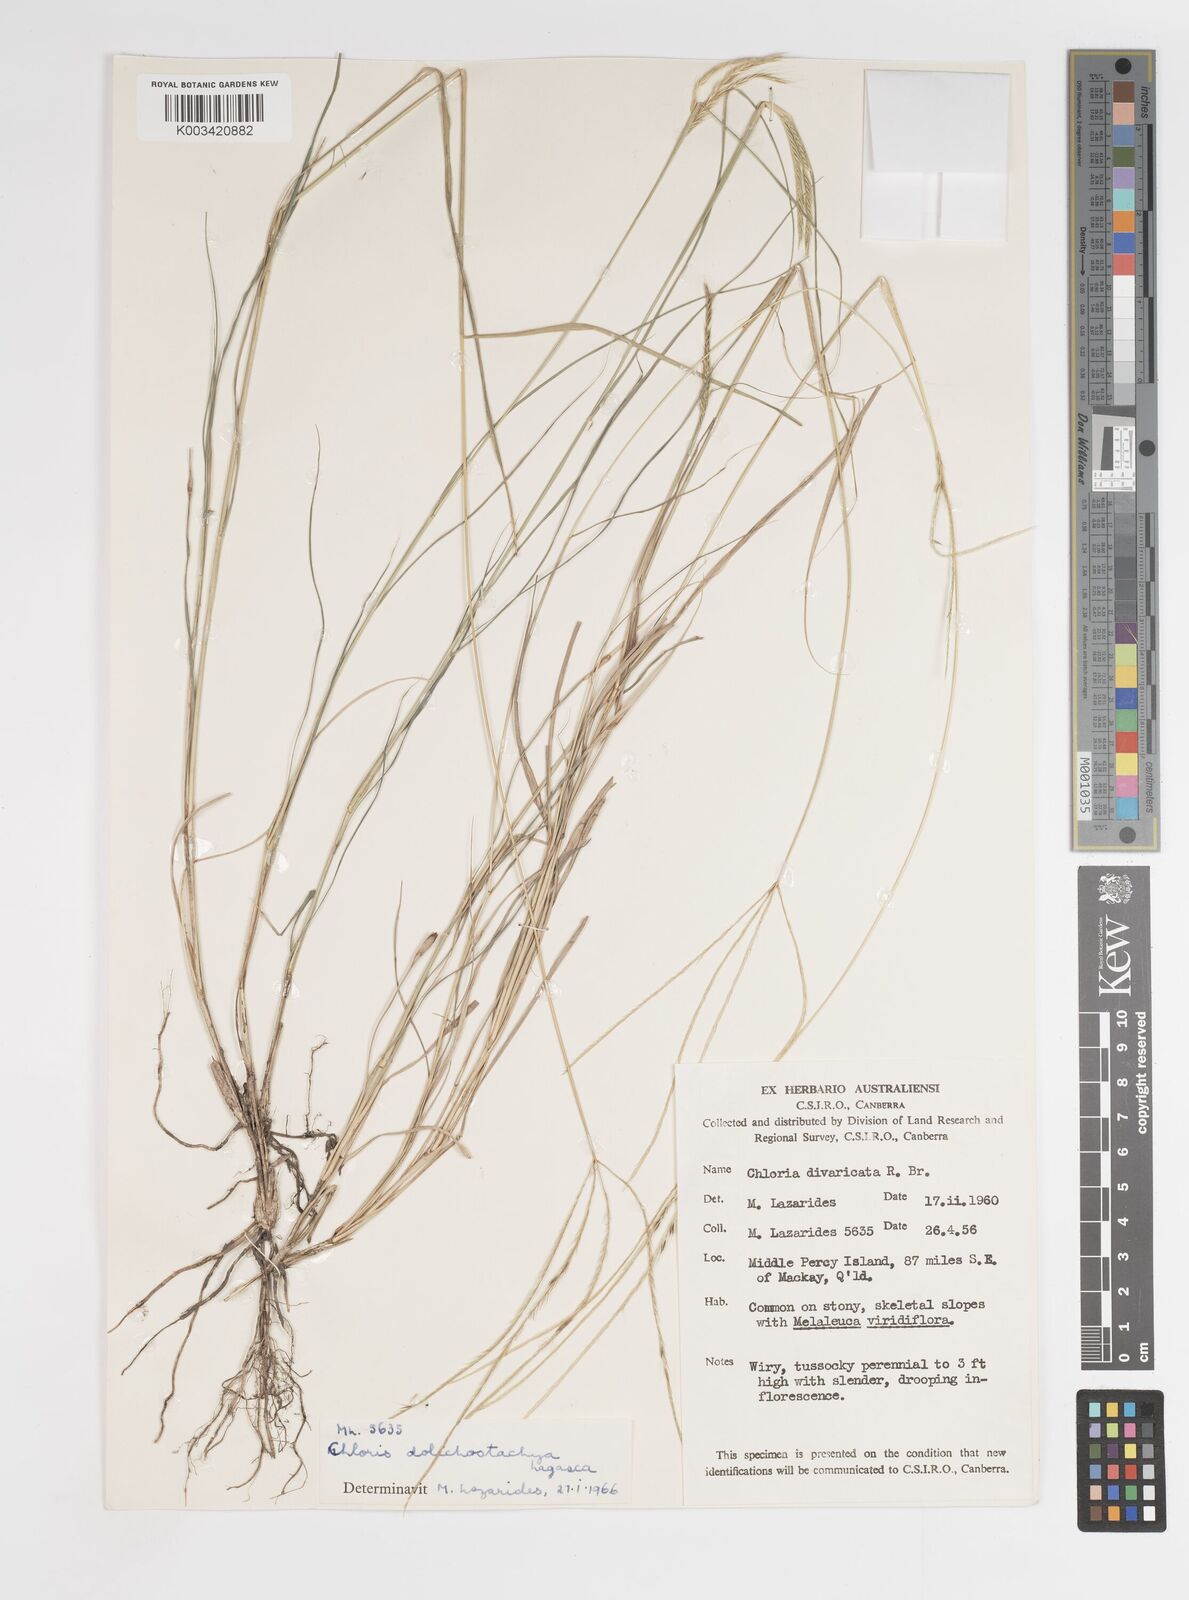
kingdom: Plantae
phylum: Tracheophyta
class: Liliopsida
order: Poales
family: Poaceae
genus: Enteropogon
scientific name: Enteropogon dolichostachyus
